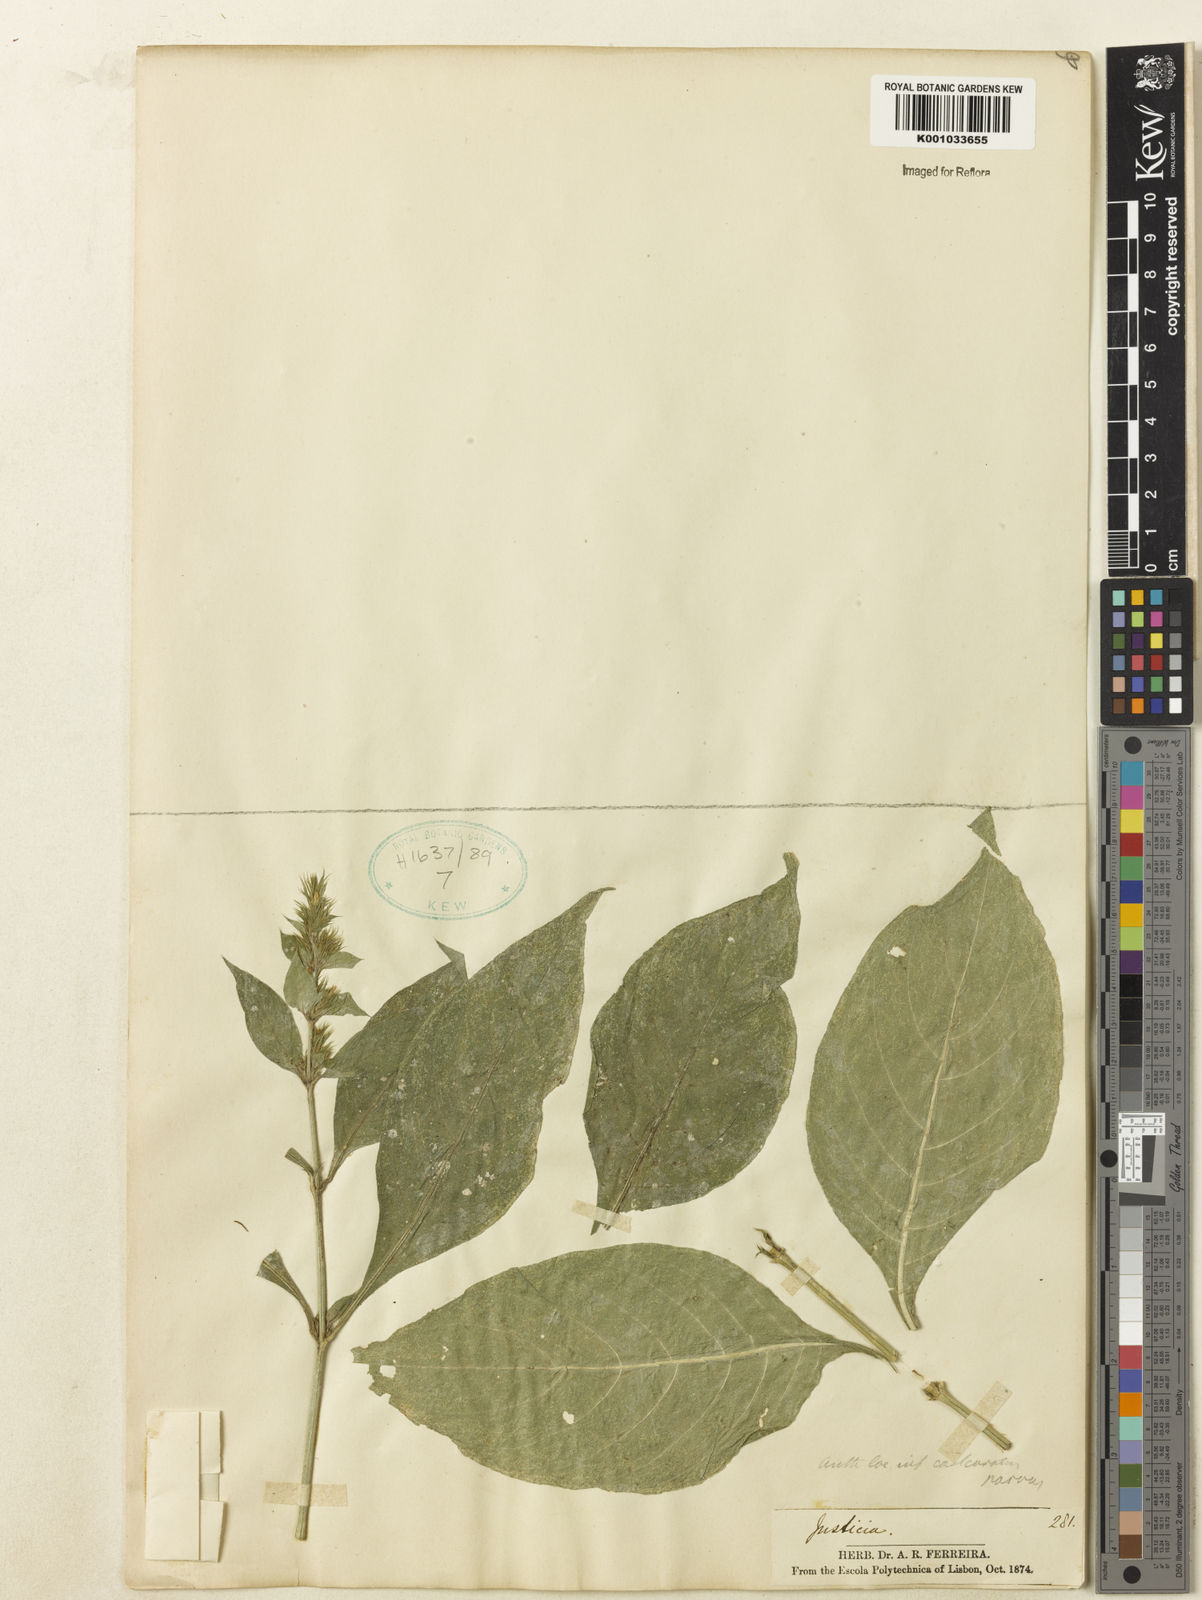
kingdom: Plantae
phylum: Tracheophyta
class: Magnoliopsida
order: Lamiales
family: Acanthaceae
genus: Justicia
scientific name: Justicia
